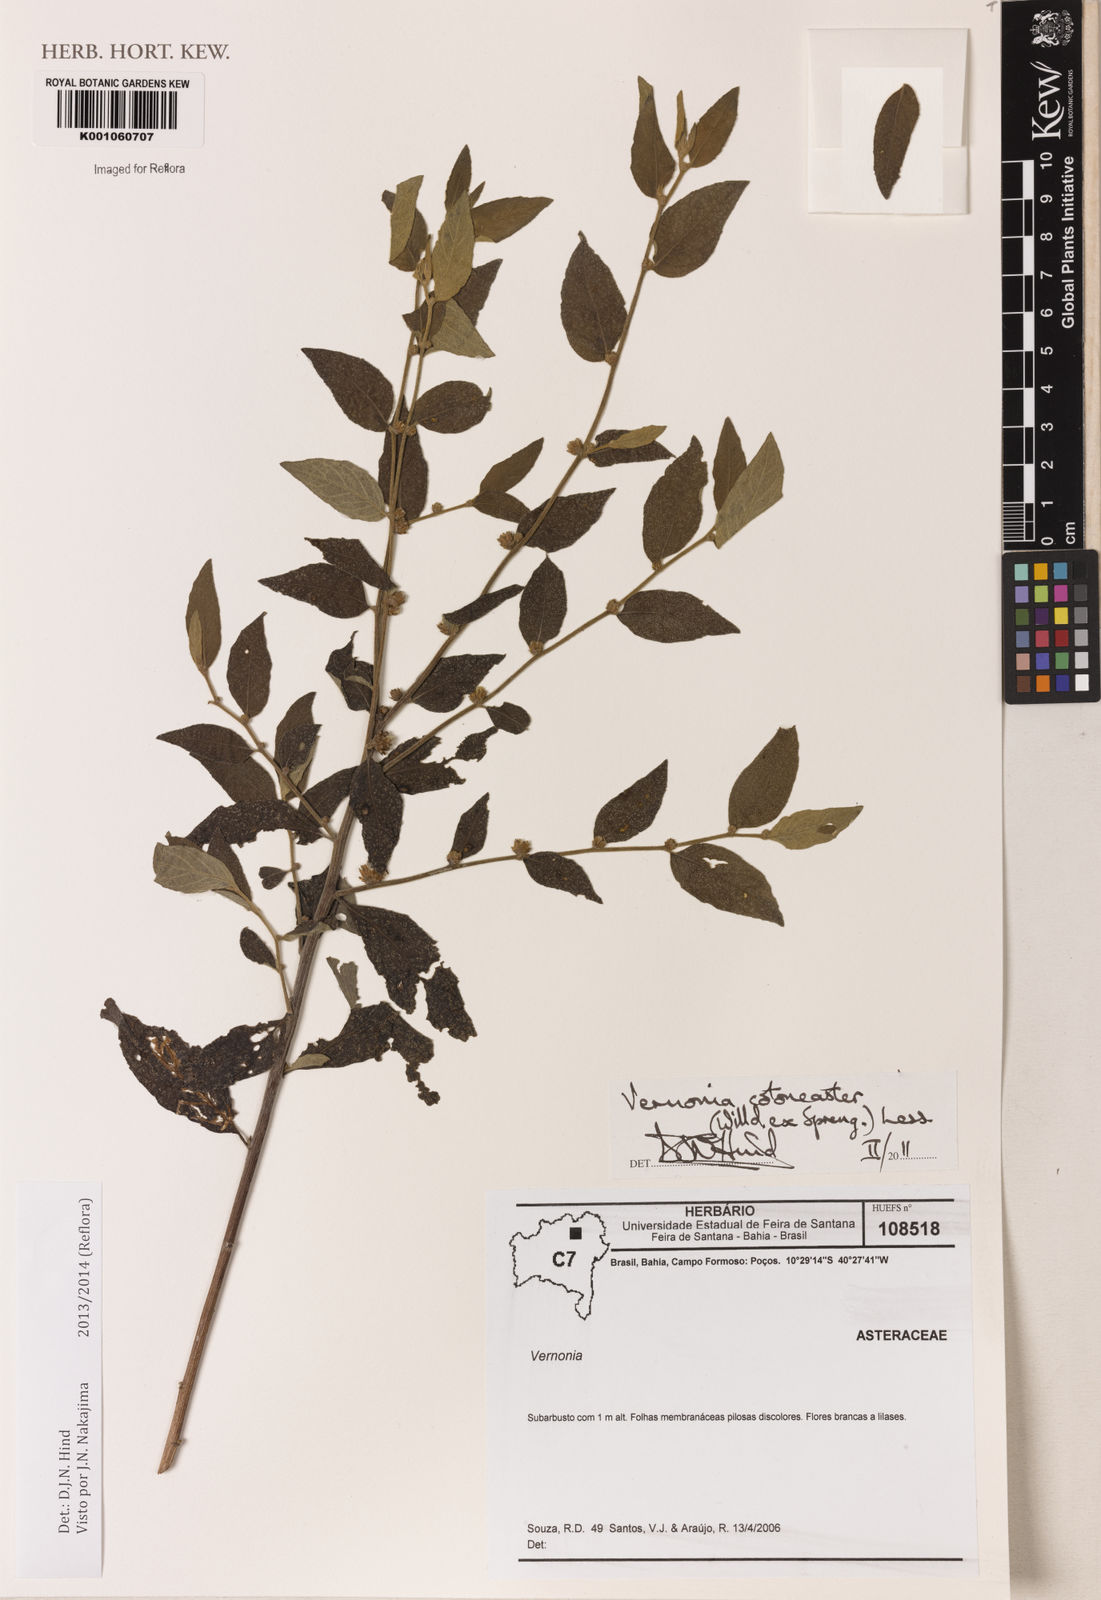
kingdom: Plantae
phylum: Tracheophyta
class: Magnoliopsida
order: Asterales
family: Asteraceae
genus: Lepidaploa
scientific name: Lepidaploa cotoneaster
